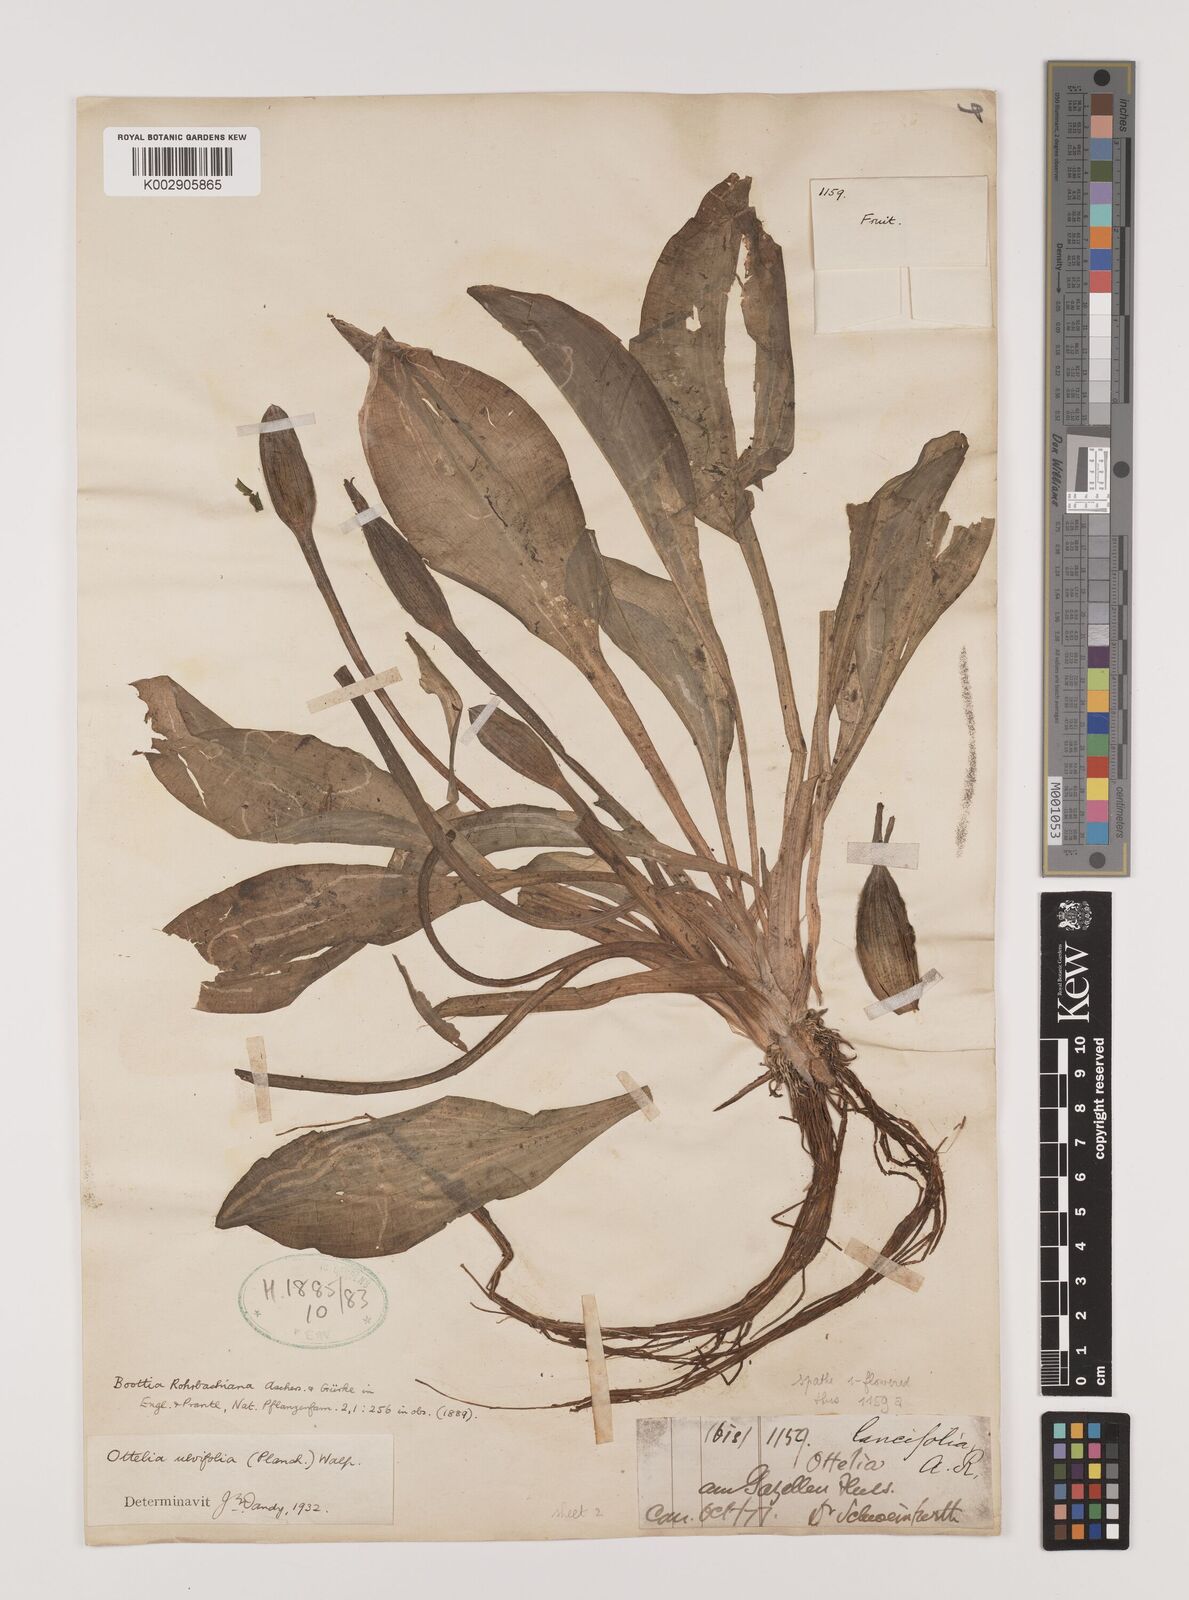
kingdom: Plantae
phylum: Tracheophyta
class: Liliopsida
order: Alismatales
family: Hydrocharitaceae
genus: Ottelia
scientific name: Ottelia ulvifolia
